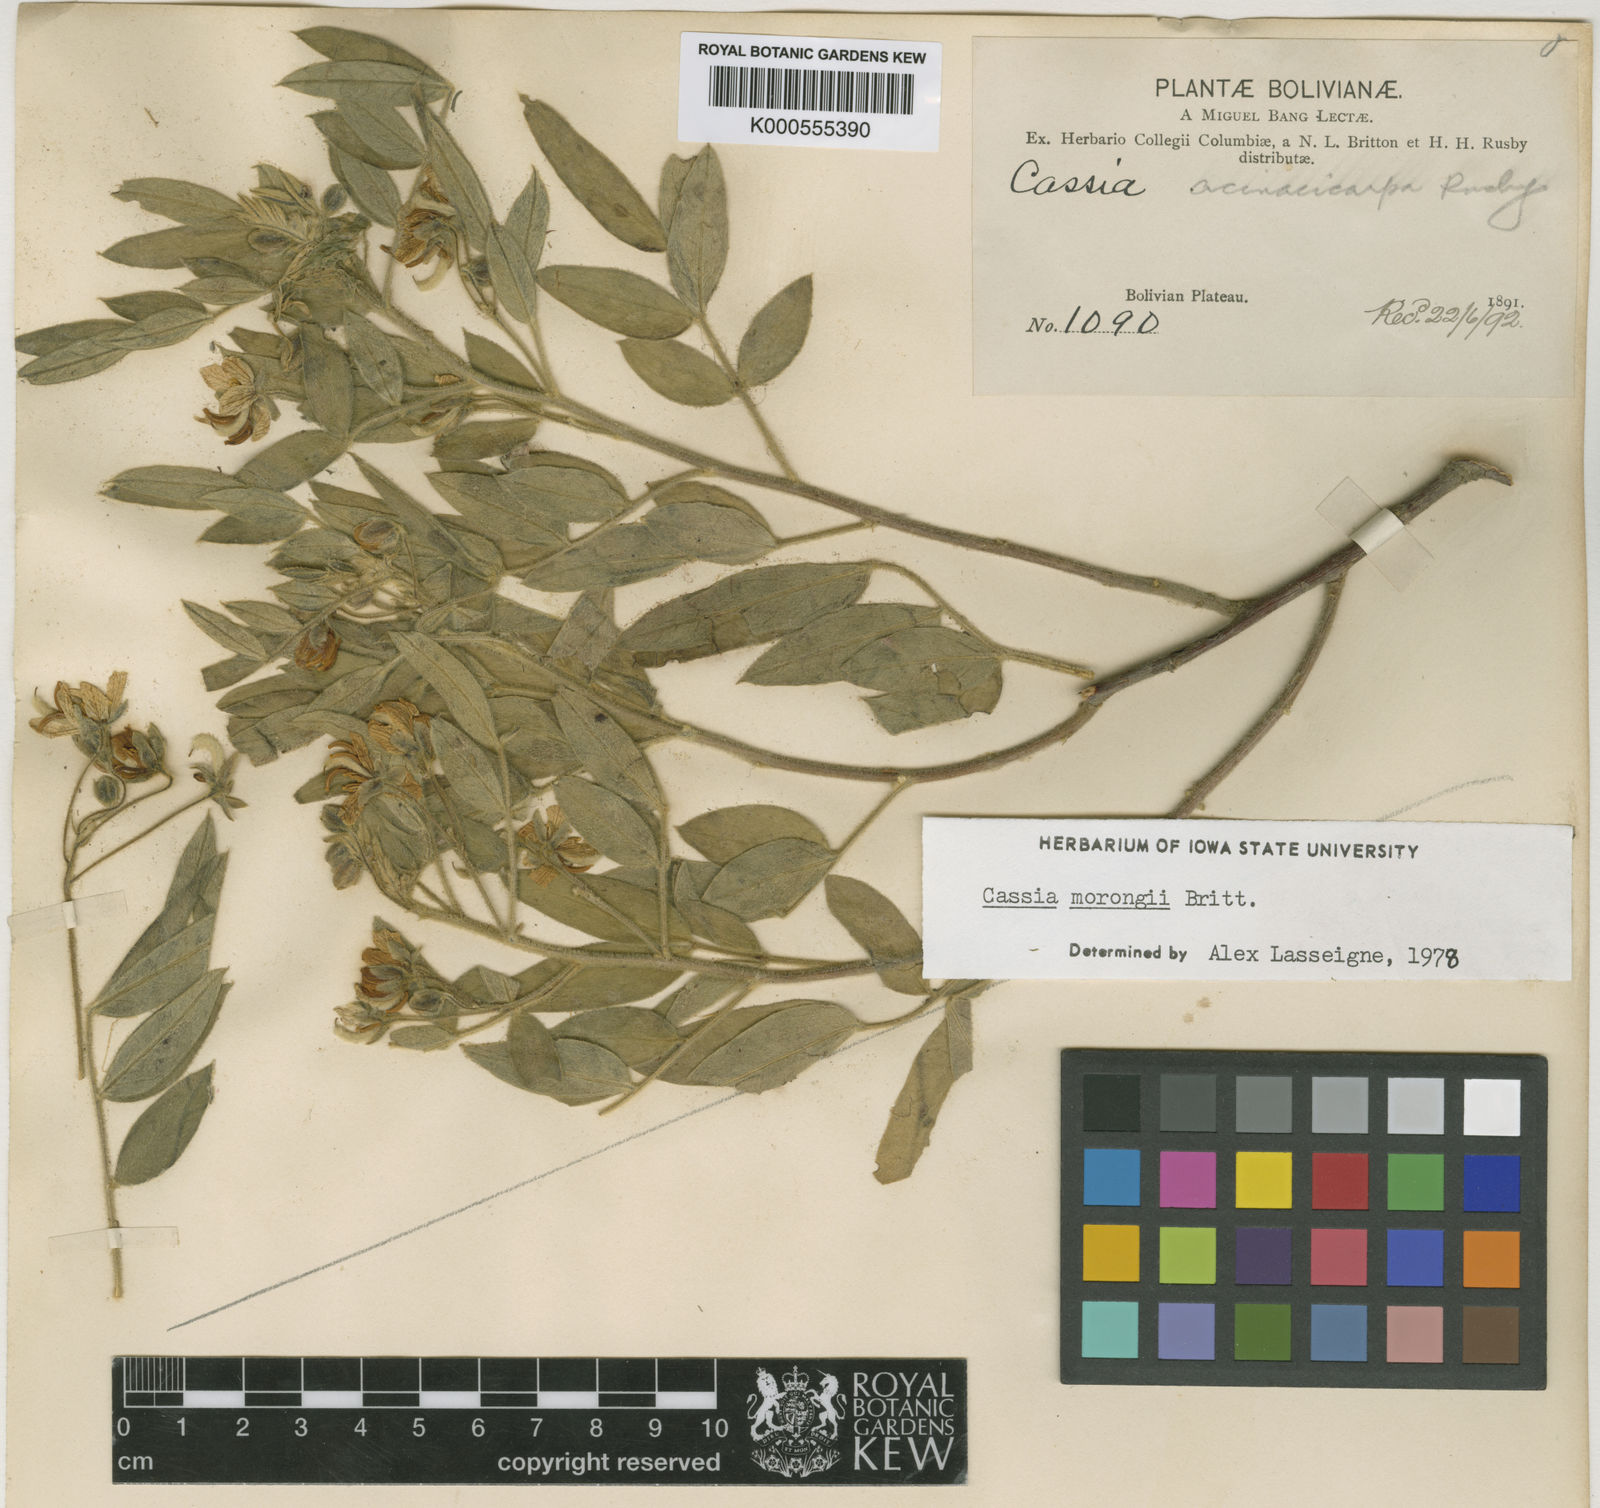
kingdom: Plantae
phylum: Tracheophyta
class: Magnoliopsida
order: Fabales
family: Fabaceae
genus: Senna
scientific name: Senna morongii
